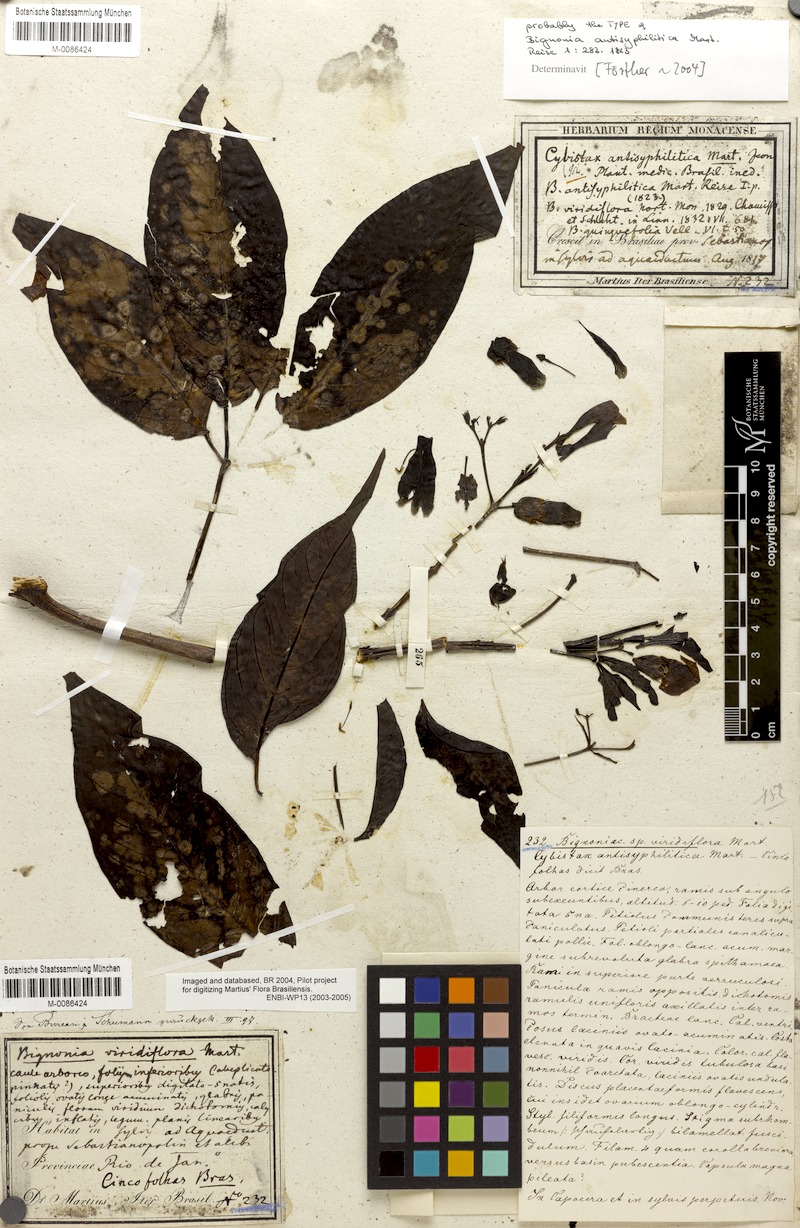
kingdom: Plantae
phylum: Tracheophyta
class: Magnoliopsida
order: Lamiales
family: Bignoniaceae
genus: Cybistax
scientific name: Cybistax antisyphilitica
